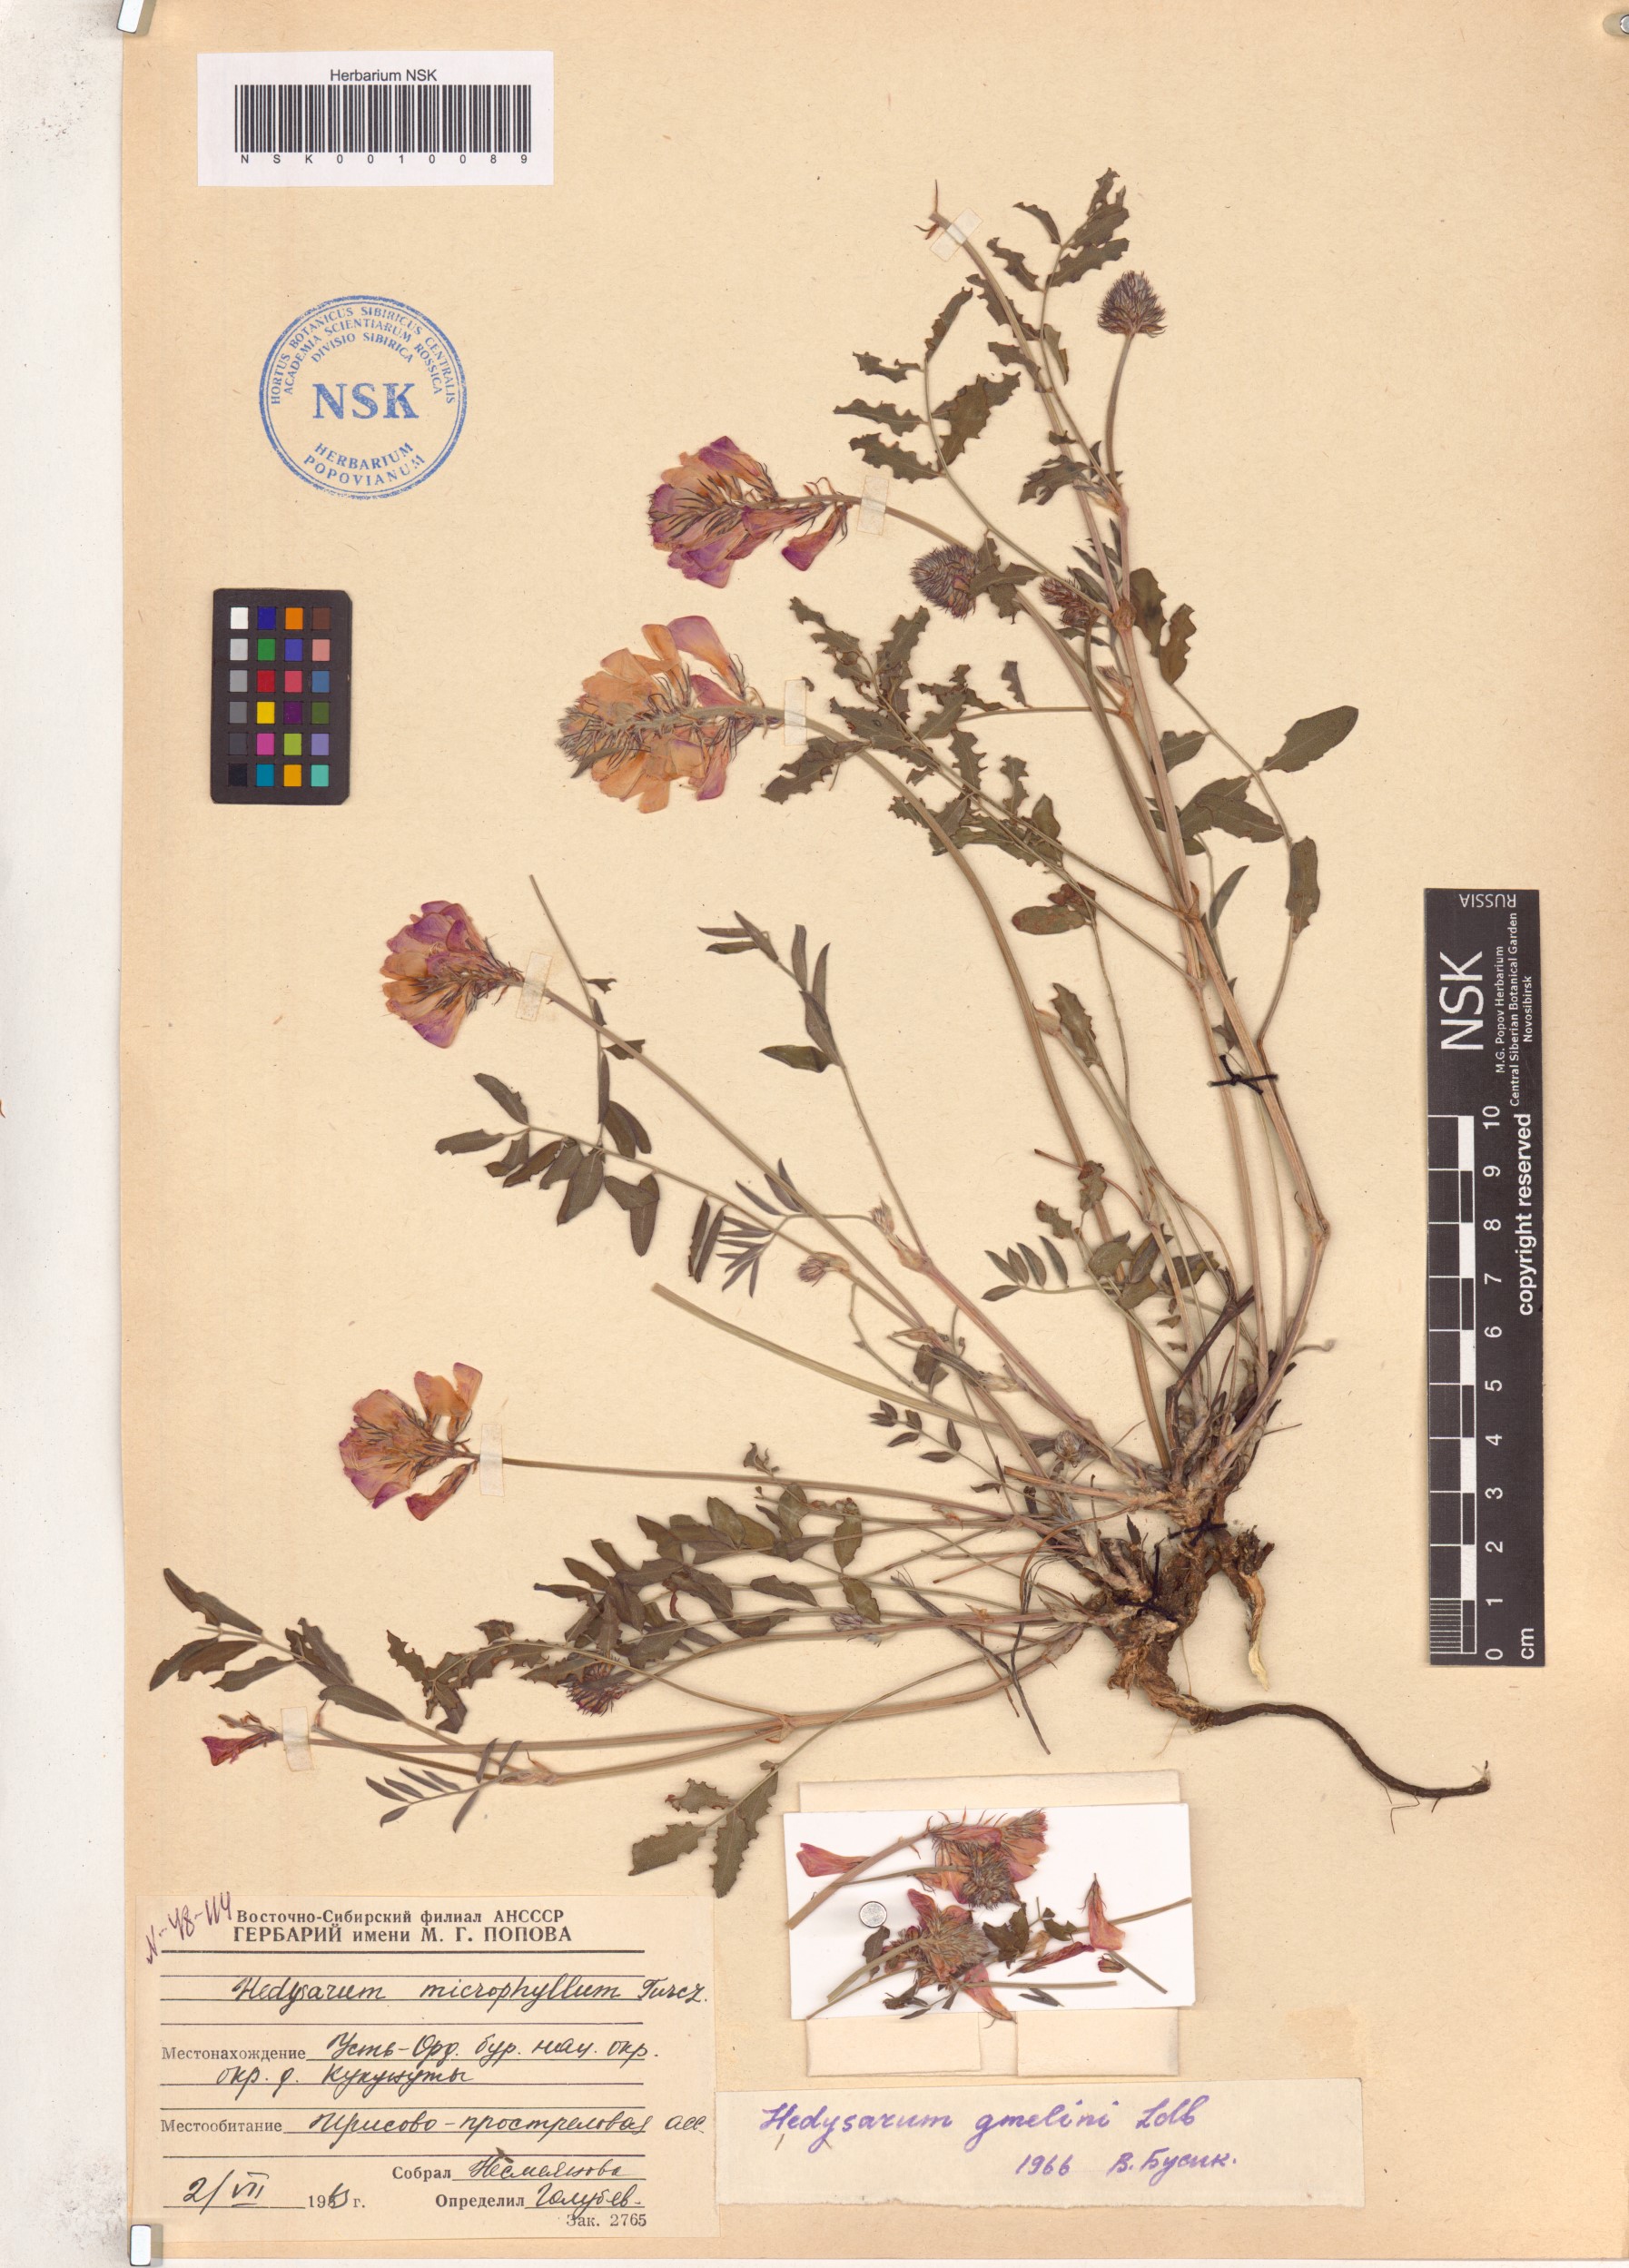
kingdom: Plantae
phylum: Tracheophyta
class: Magnoliopsida
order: Fabales
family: Fabaceae
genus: Hedysarum
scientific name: Hedysarum gmelinii
